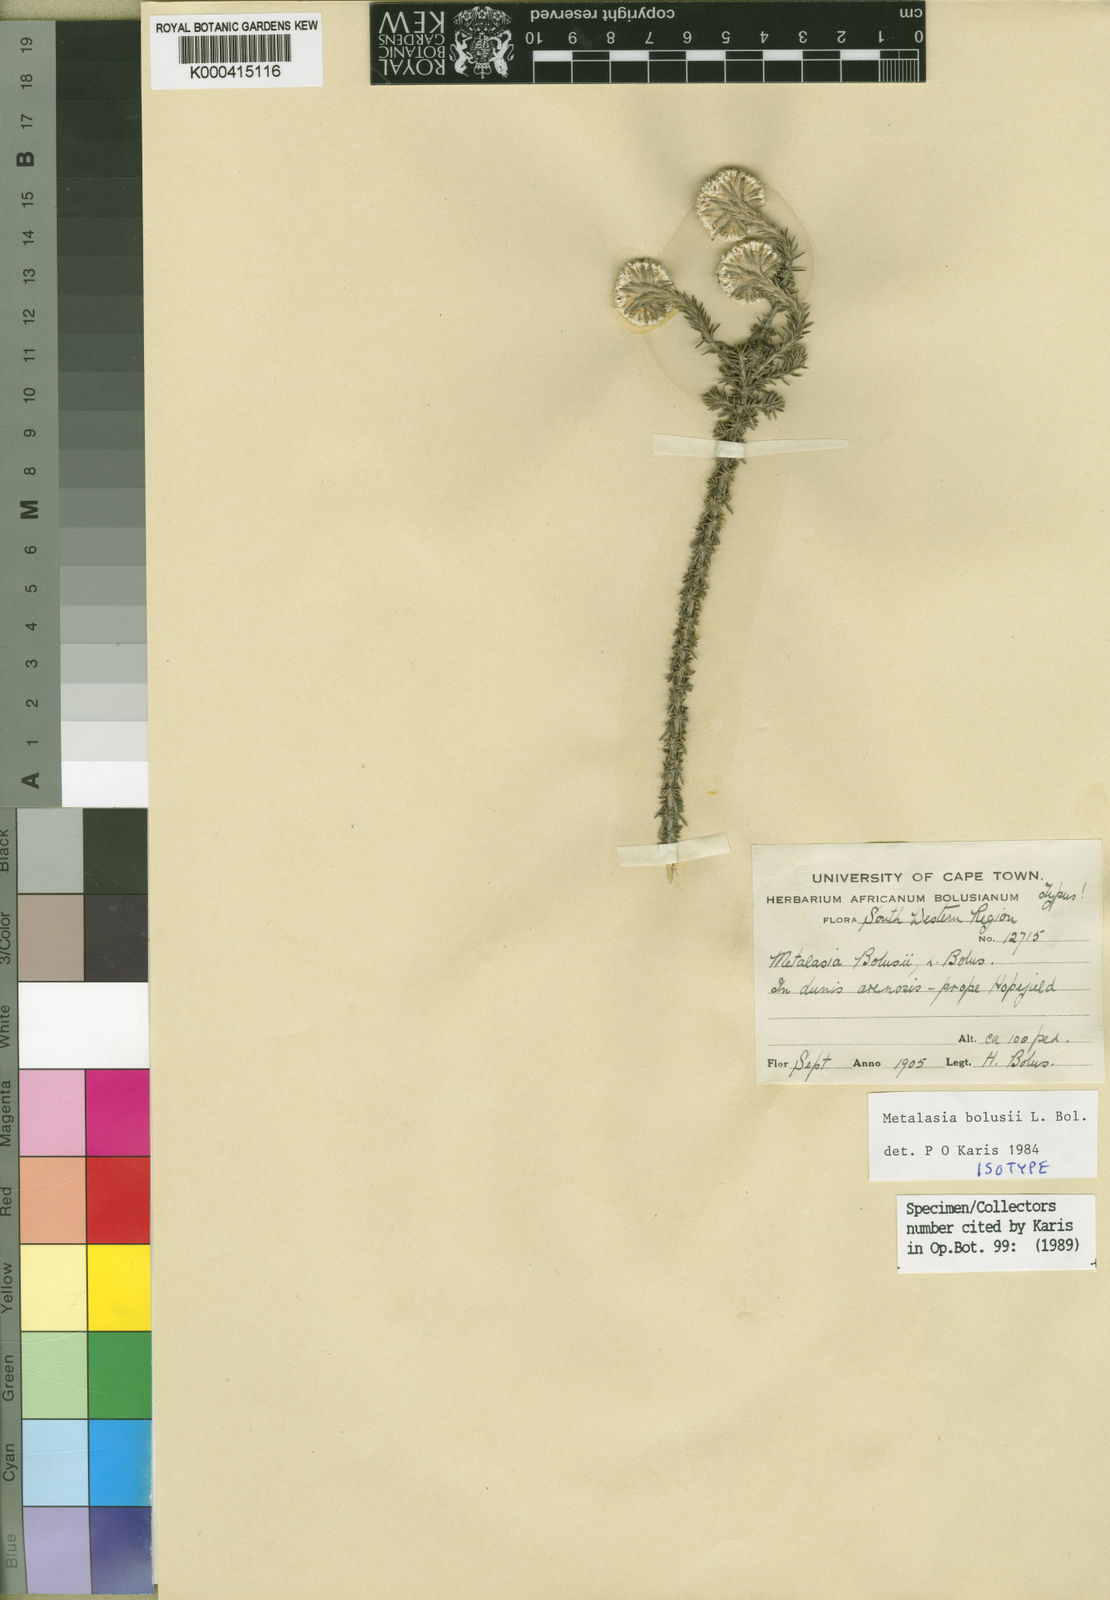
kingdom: Plantae
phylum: Tracheophyta
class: Magnoliopsida
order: Asterales
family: Asteraceae
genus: Metalasia
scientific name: Metalasia capitata
